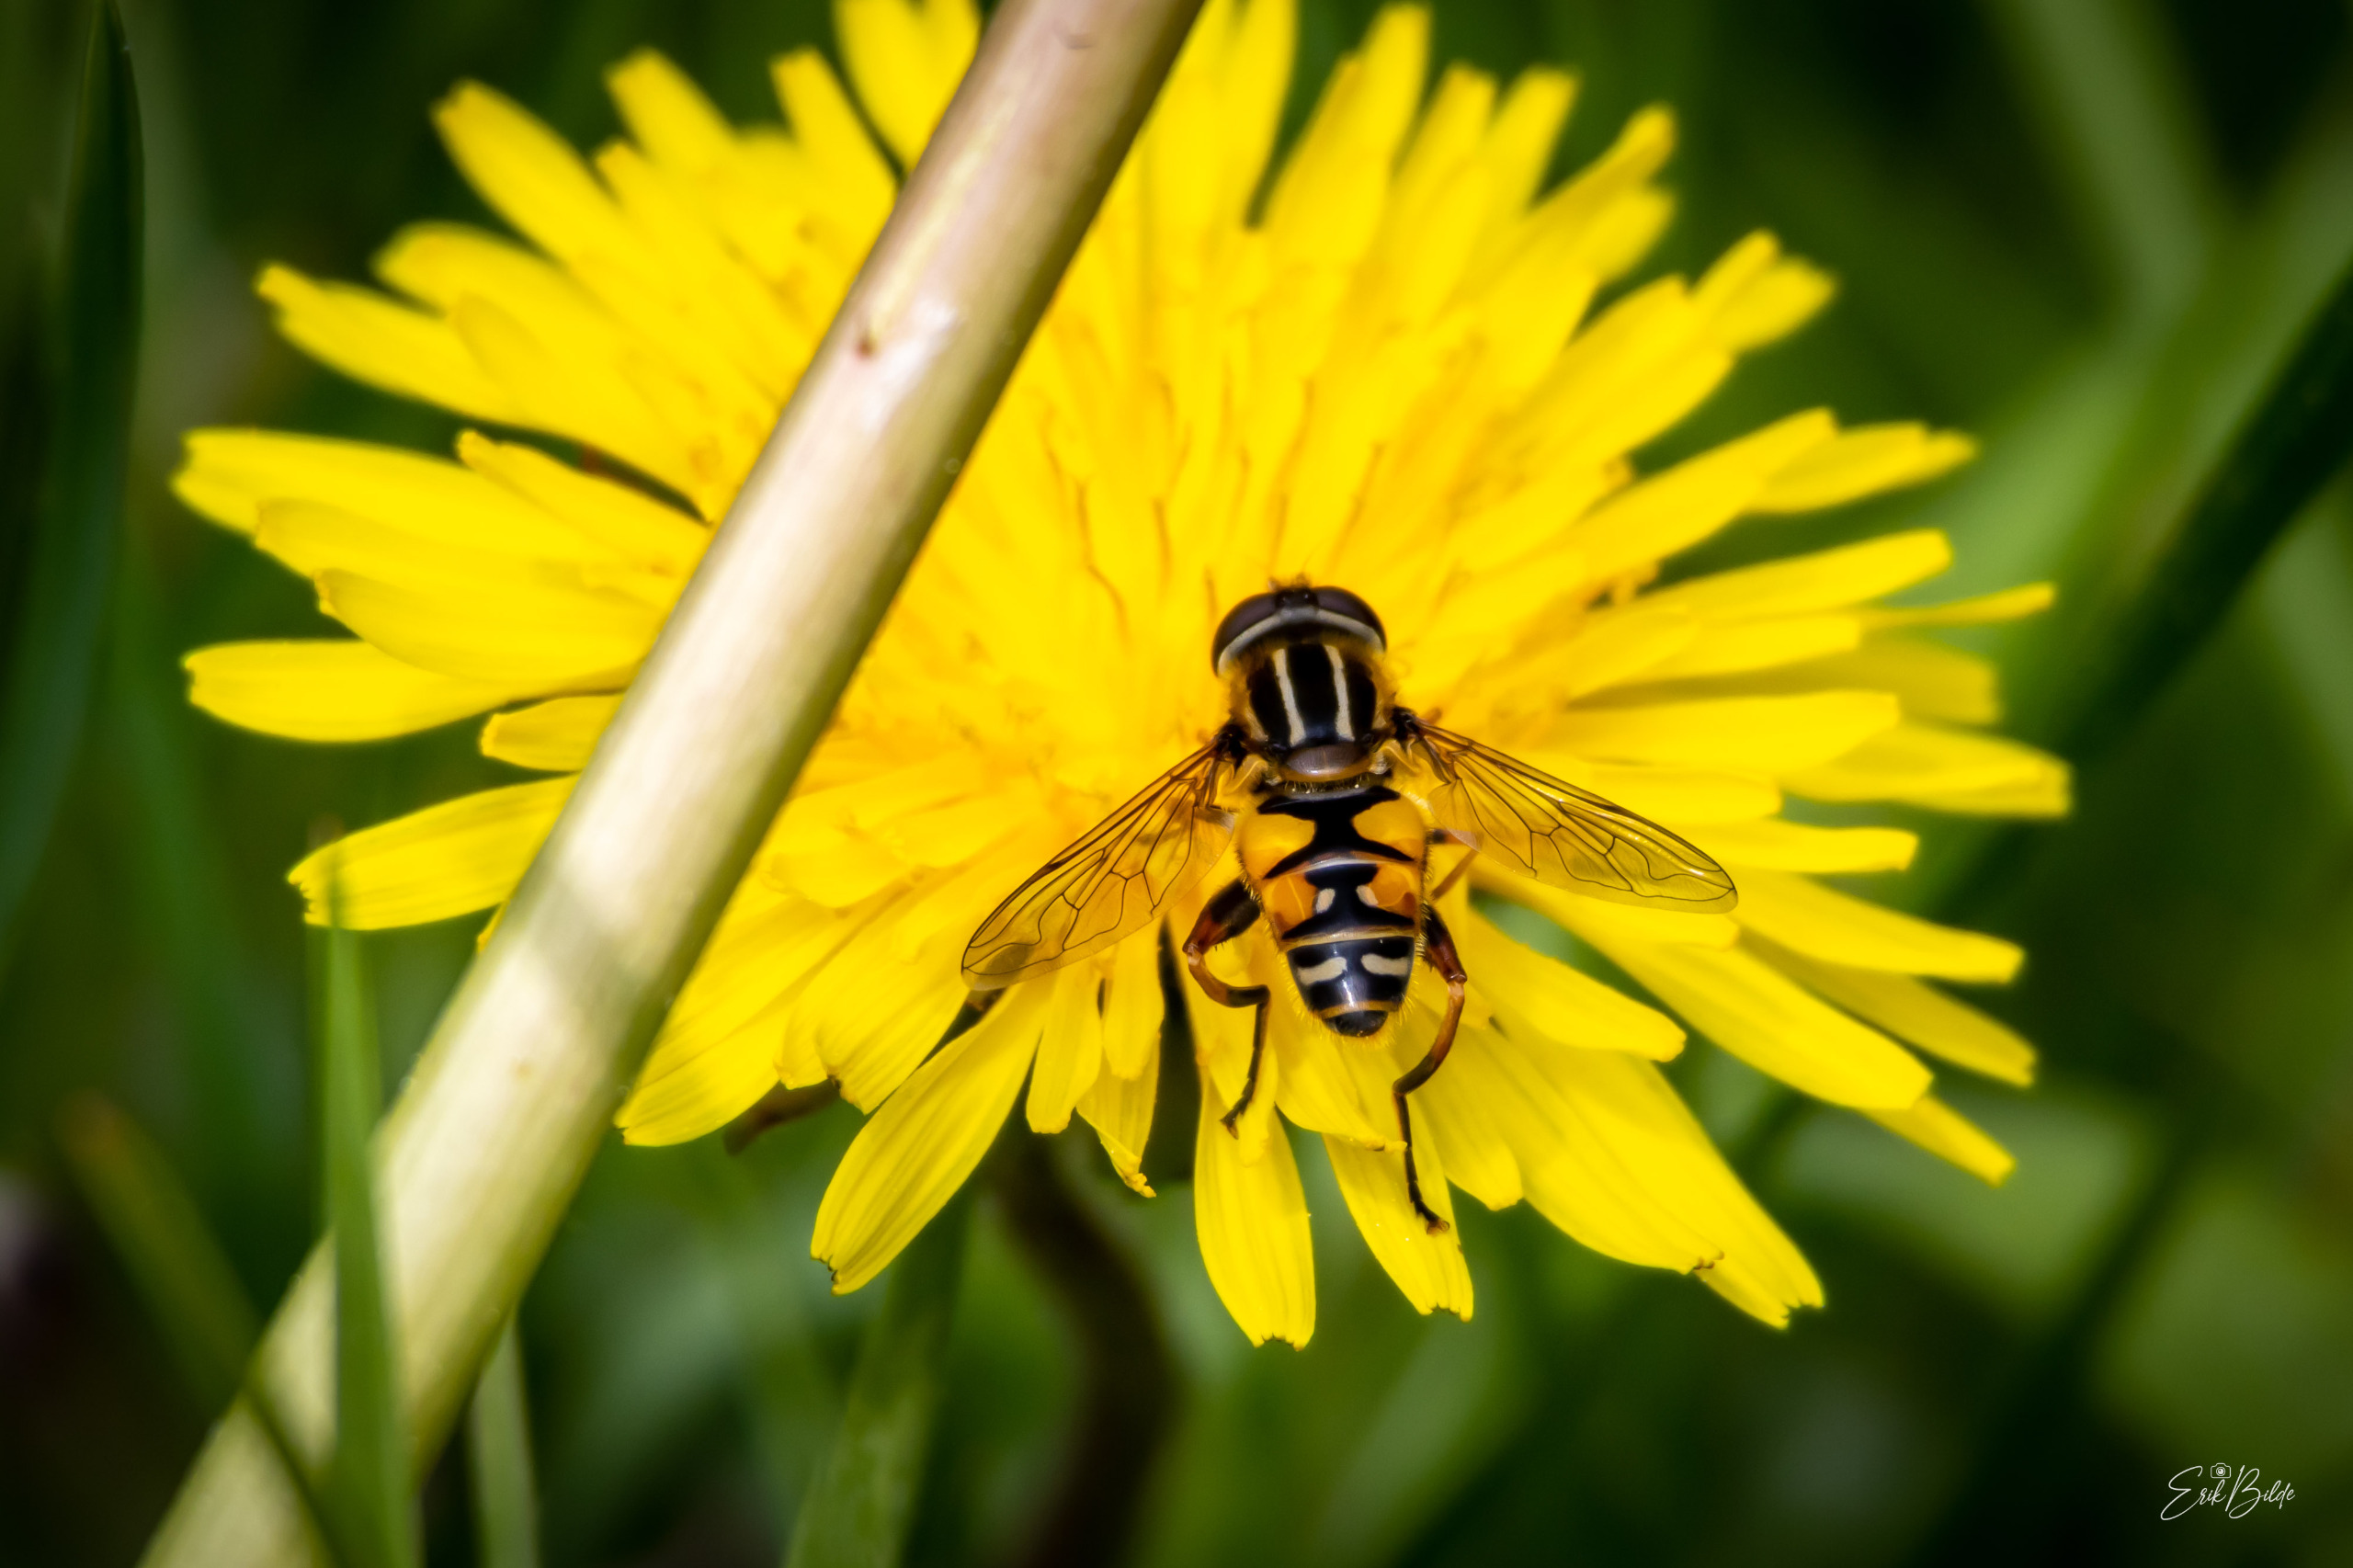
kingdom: Animalia
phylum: Arthropoda
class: Insecta
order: Diptera
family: Syrphidae
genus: Helophilus
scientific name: Helophilus pendulus
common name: Almindelig sumpsvirreflue
